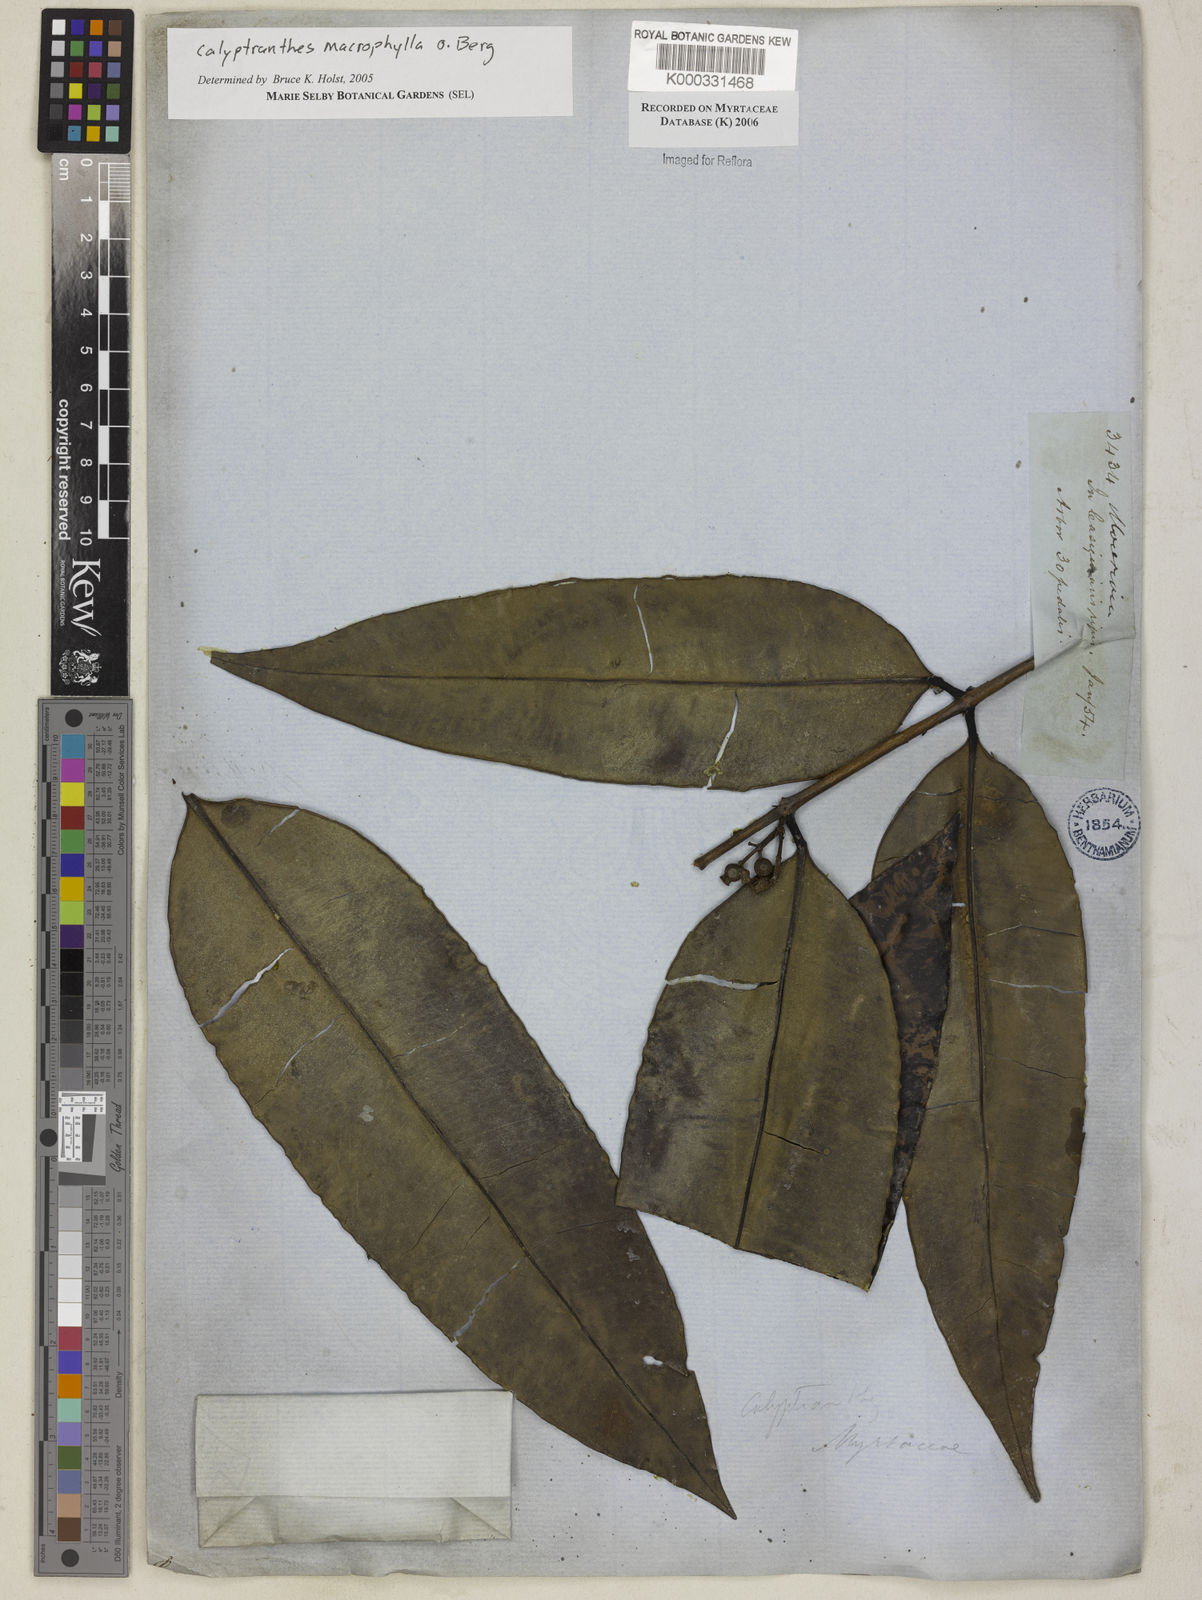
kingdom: Plantae
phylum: Tracheophyta
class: Magnoliopsida
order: Myrtales
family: Myrtaceae
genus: Myrcia
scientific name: Myrcia neomacrophylla
